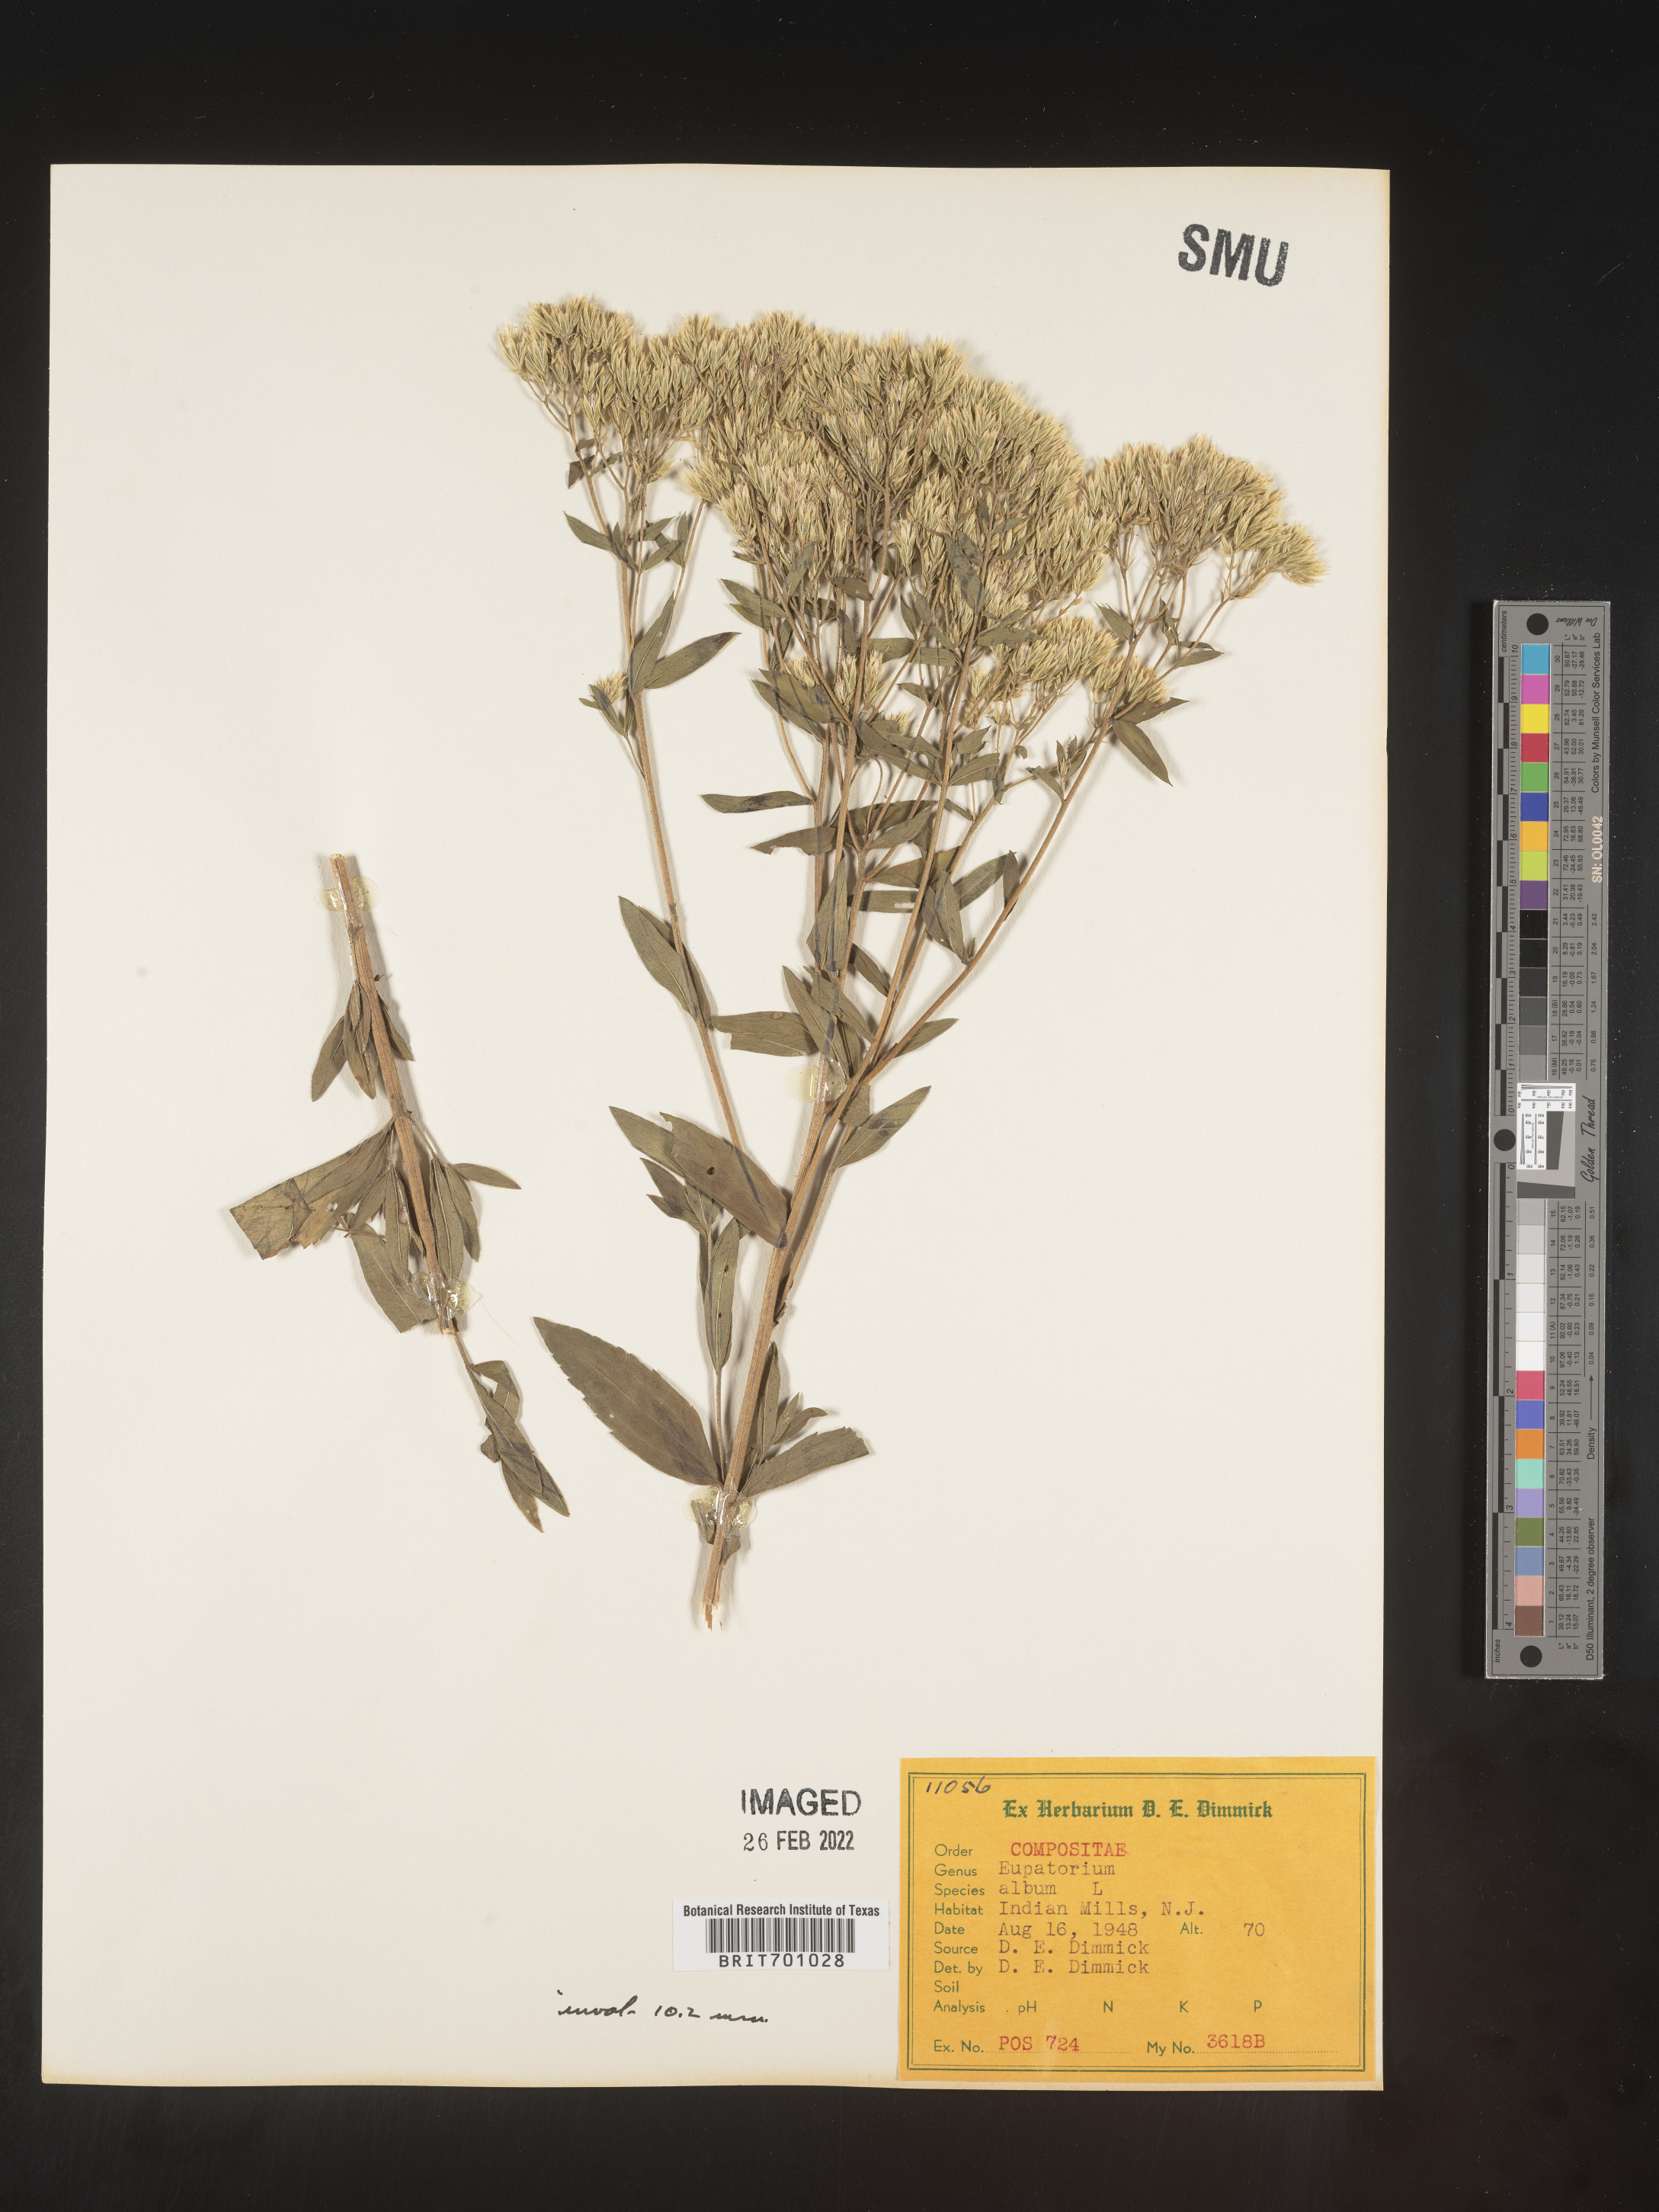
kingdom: Plantae
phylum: Tracheophyta
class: Magnoliopsida
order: Asterales
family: Asteraceae
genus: Eupatorium
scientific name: Eupatorium album
